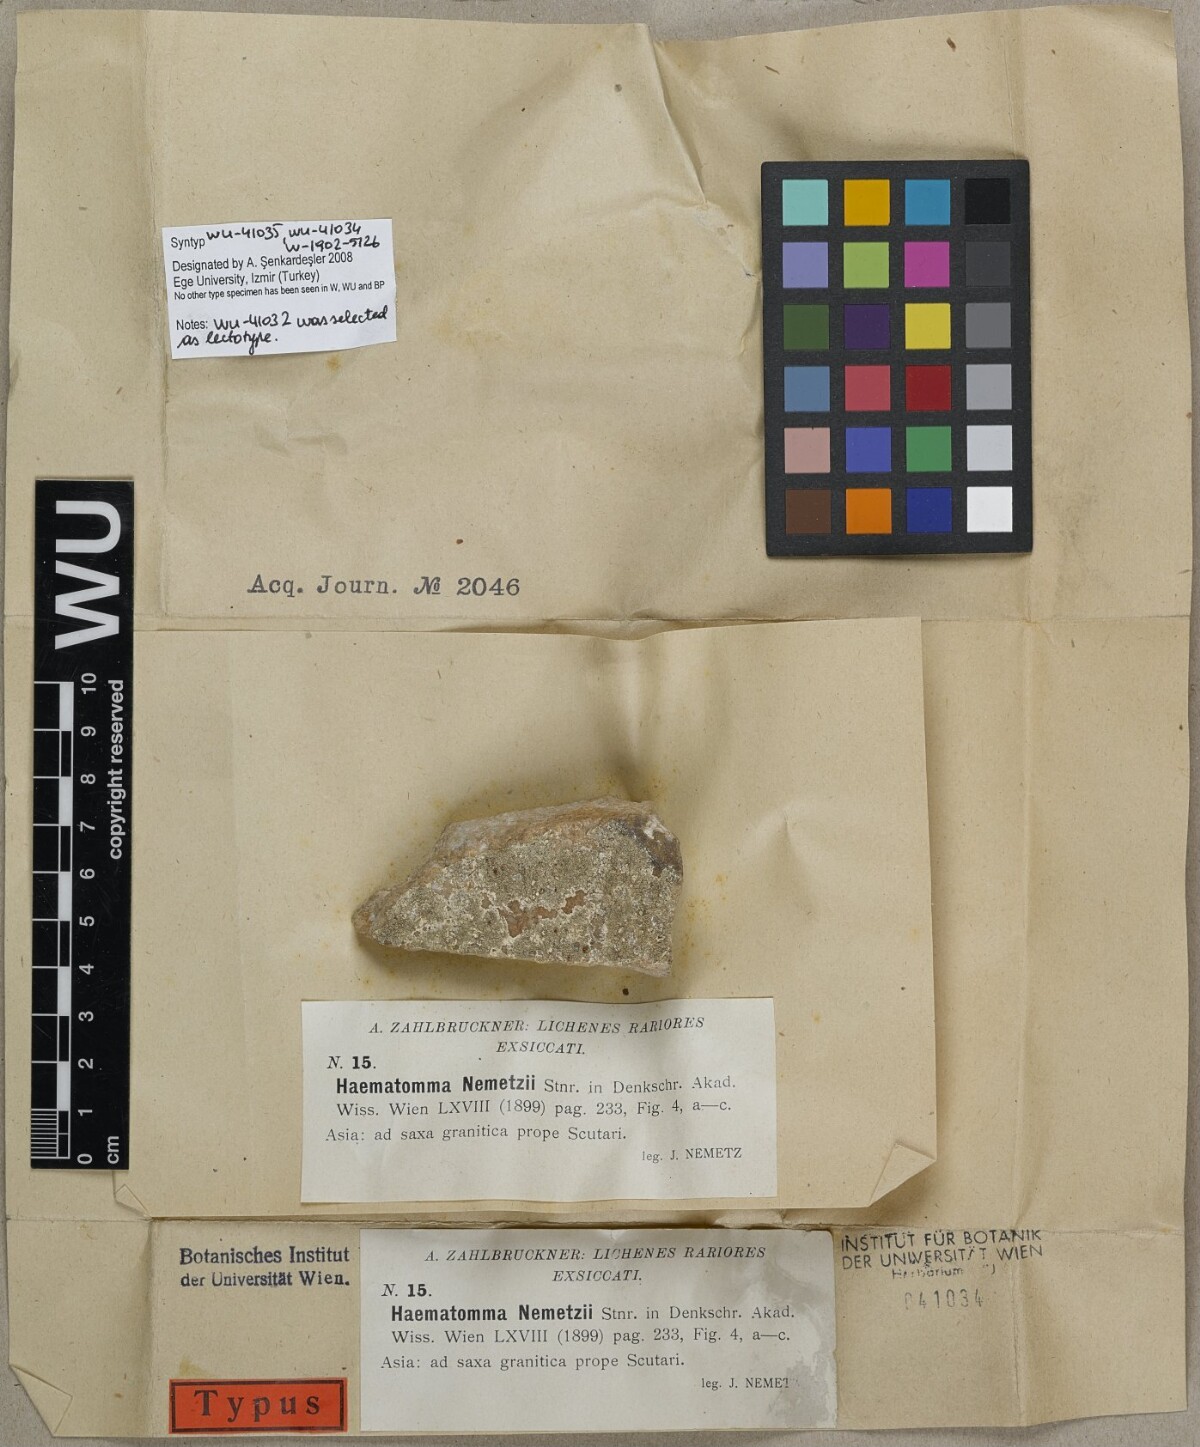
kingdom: Fungi
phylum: Ascomycota
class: Lecanoromycetes
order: Lecanorales
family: Haematommataceae
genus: Haematomma
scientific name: Haematomma nemetzii
